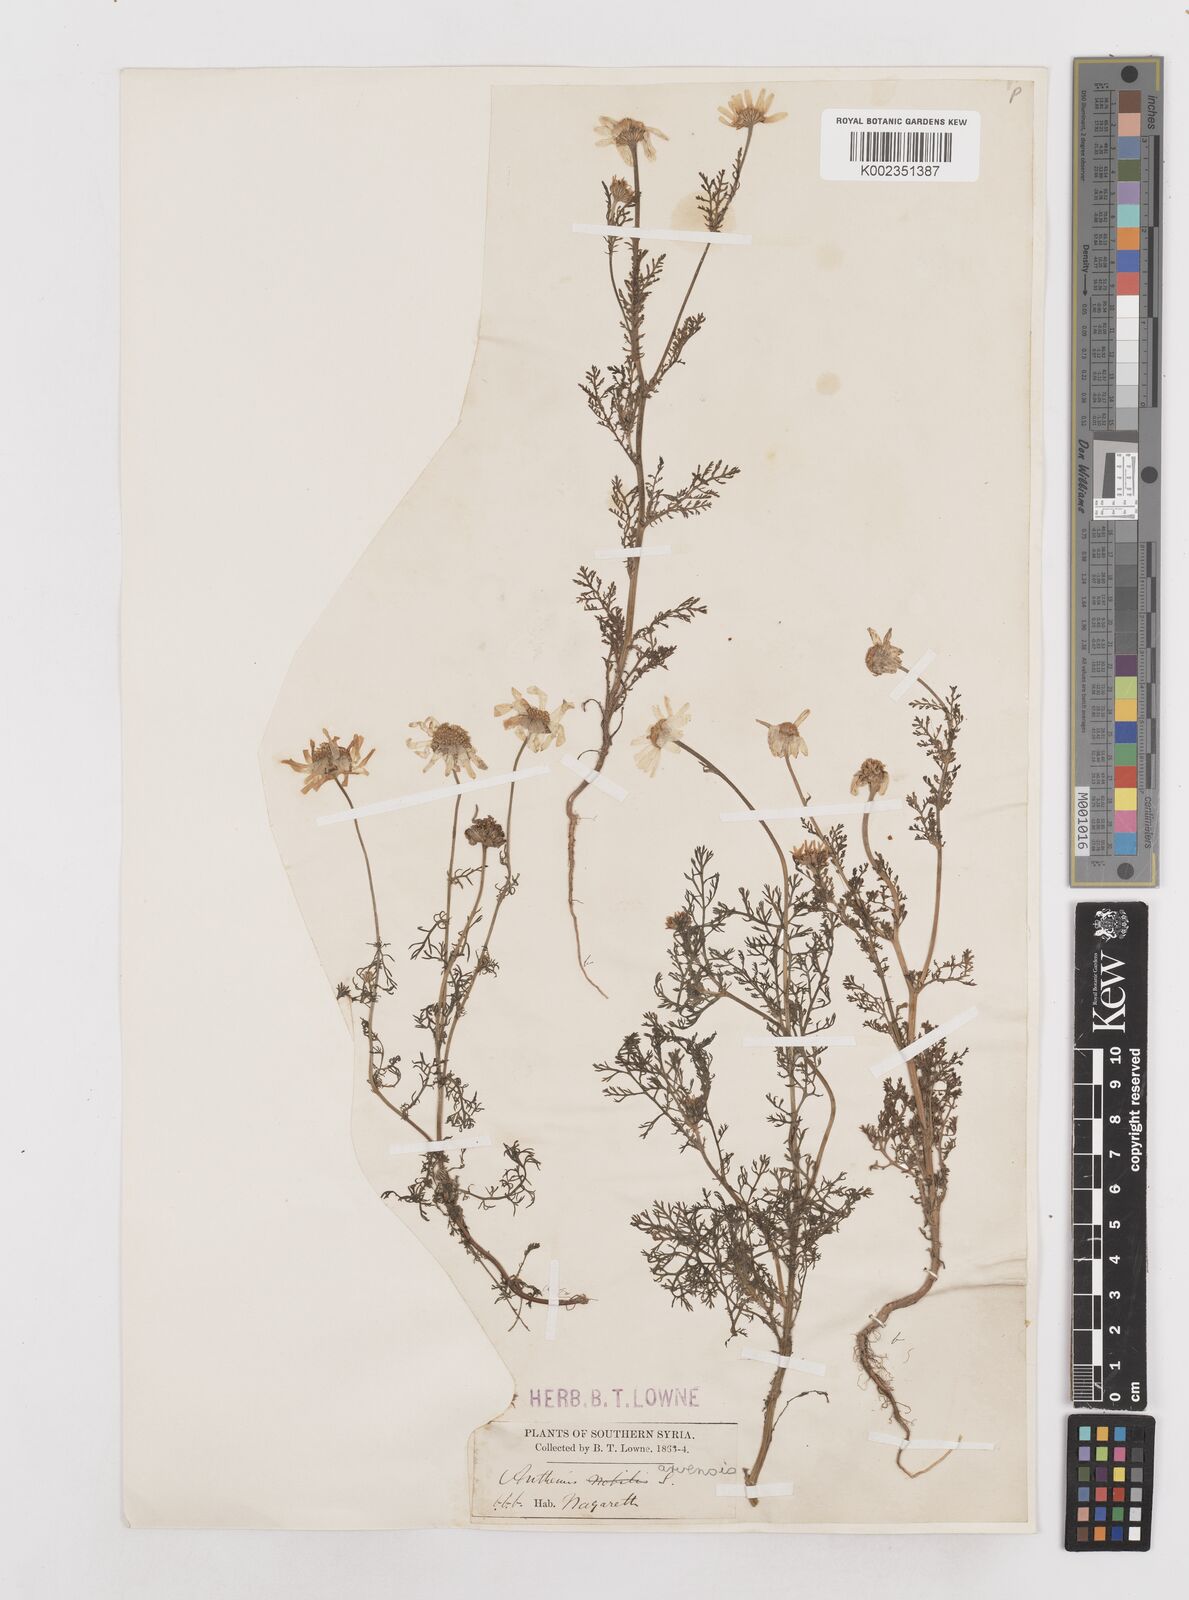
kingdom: Plantae
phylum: Tracheophyta
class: Magnoliopsida
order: Asterales
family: Asteraceae
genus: Anthemis
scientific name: Anthemis arvensis
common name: Corn chamomile
